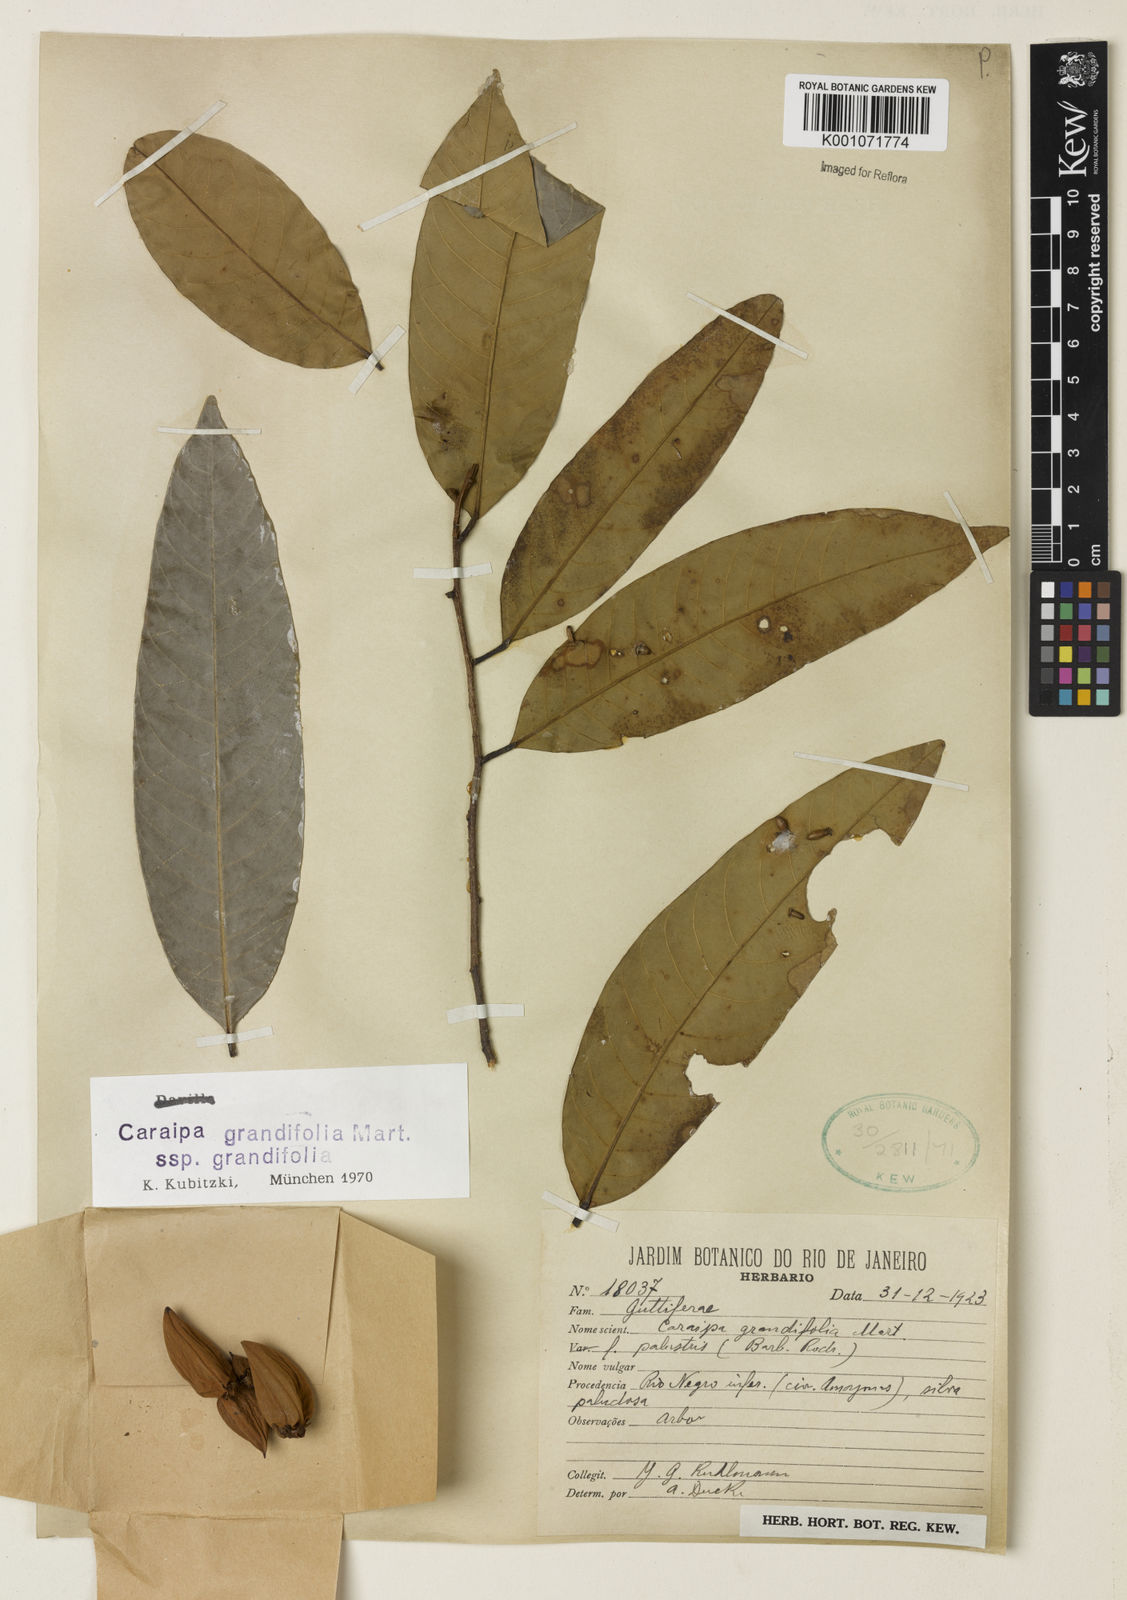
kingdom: Plantae
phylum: Tracheophyta
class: Magnoliopsida
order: Malpighiales
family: Calophyllaceae
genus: Caraipa
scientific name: Caraipa grandifolia
